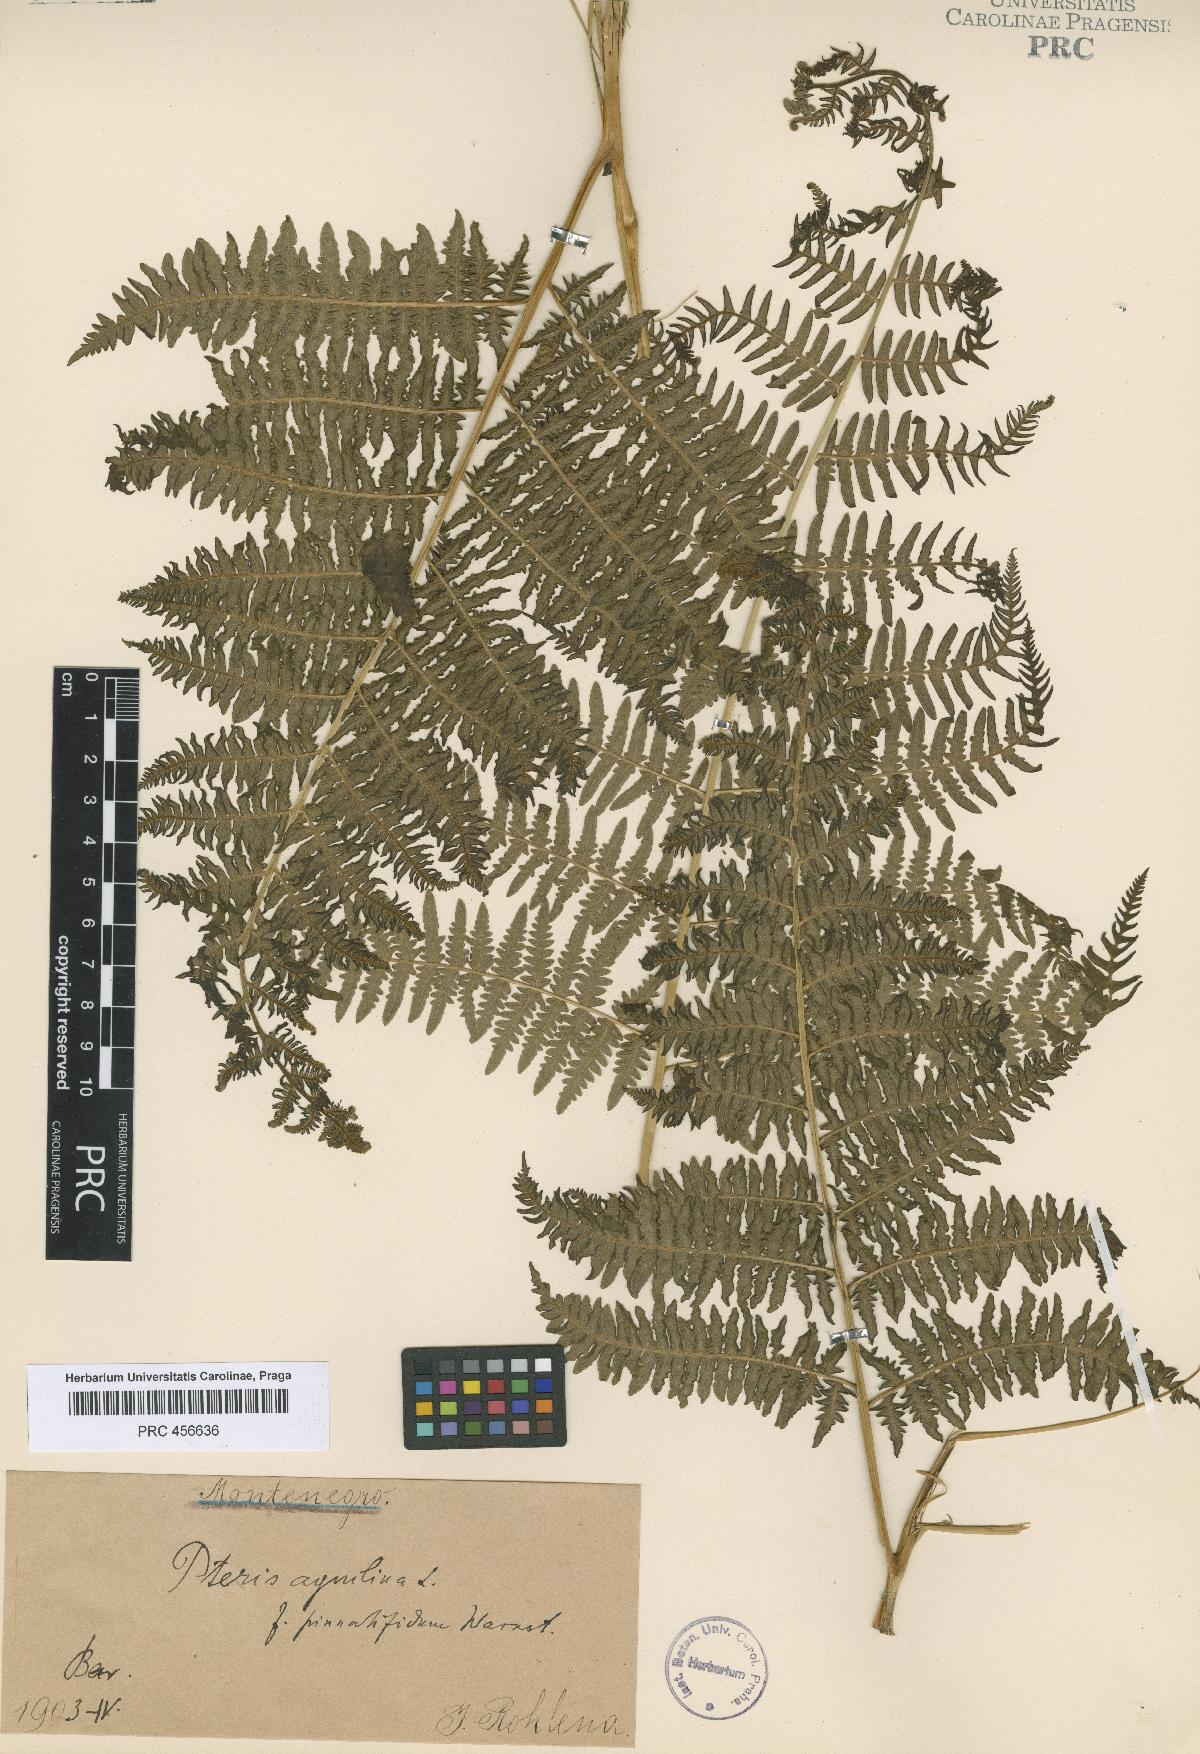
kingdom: Plantae
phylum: Tracheophyta
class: Polypodiopsida
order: Polypodiales
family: Dennstaedtiaceae
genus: Pteridium
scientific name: Pteridium aquilinum
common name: Bracken
